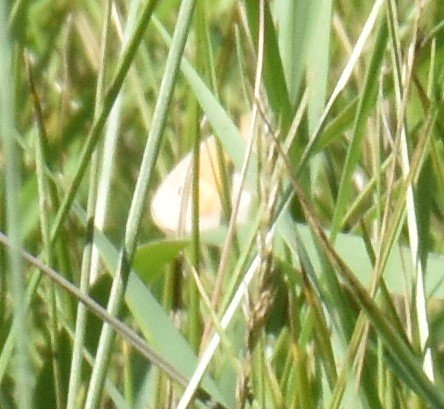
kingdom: Animalia
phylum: Arthropoda
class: Insecta
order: Lepidoptera
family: Nymphalidae
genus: Coenonympha
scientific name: Coenonympha tullia
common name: Large Heath
